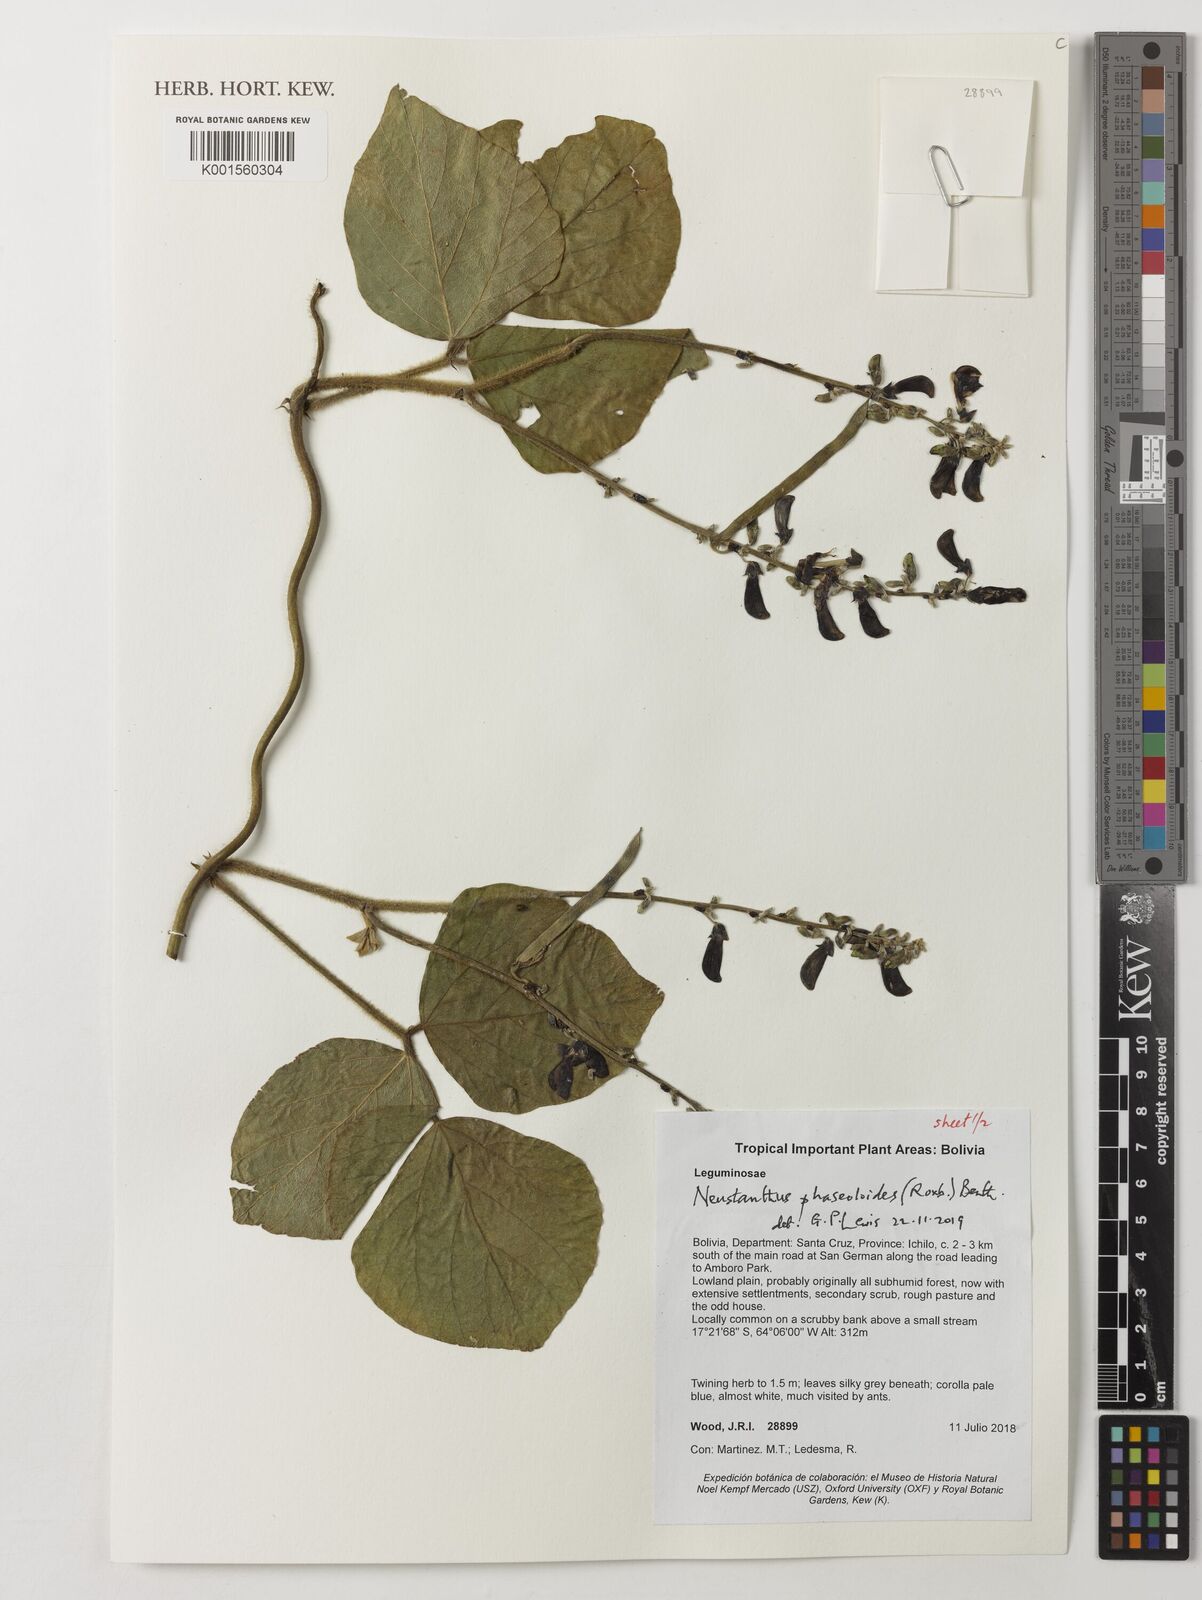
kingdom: Plantae
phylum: Tracheophyta
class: Magnoliopsida
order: Fabales
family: Fabaceae
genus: Neustanthus
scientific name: Neustanthus phaseoloides
